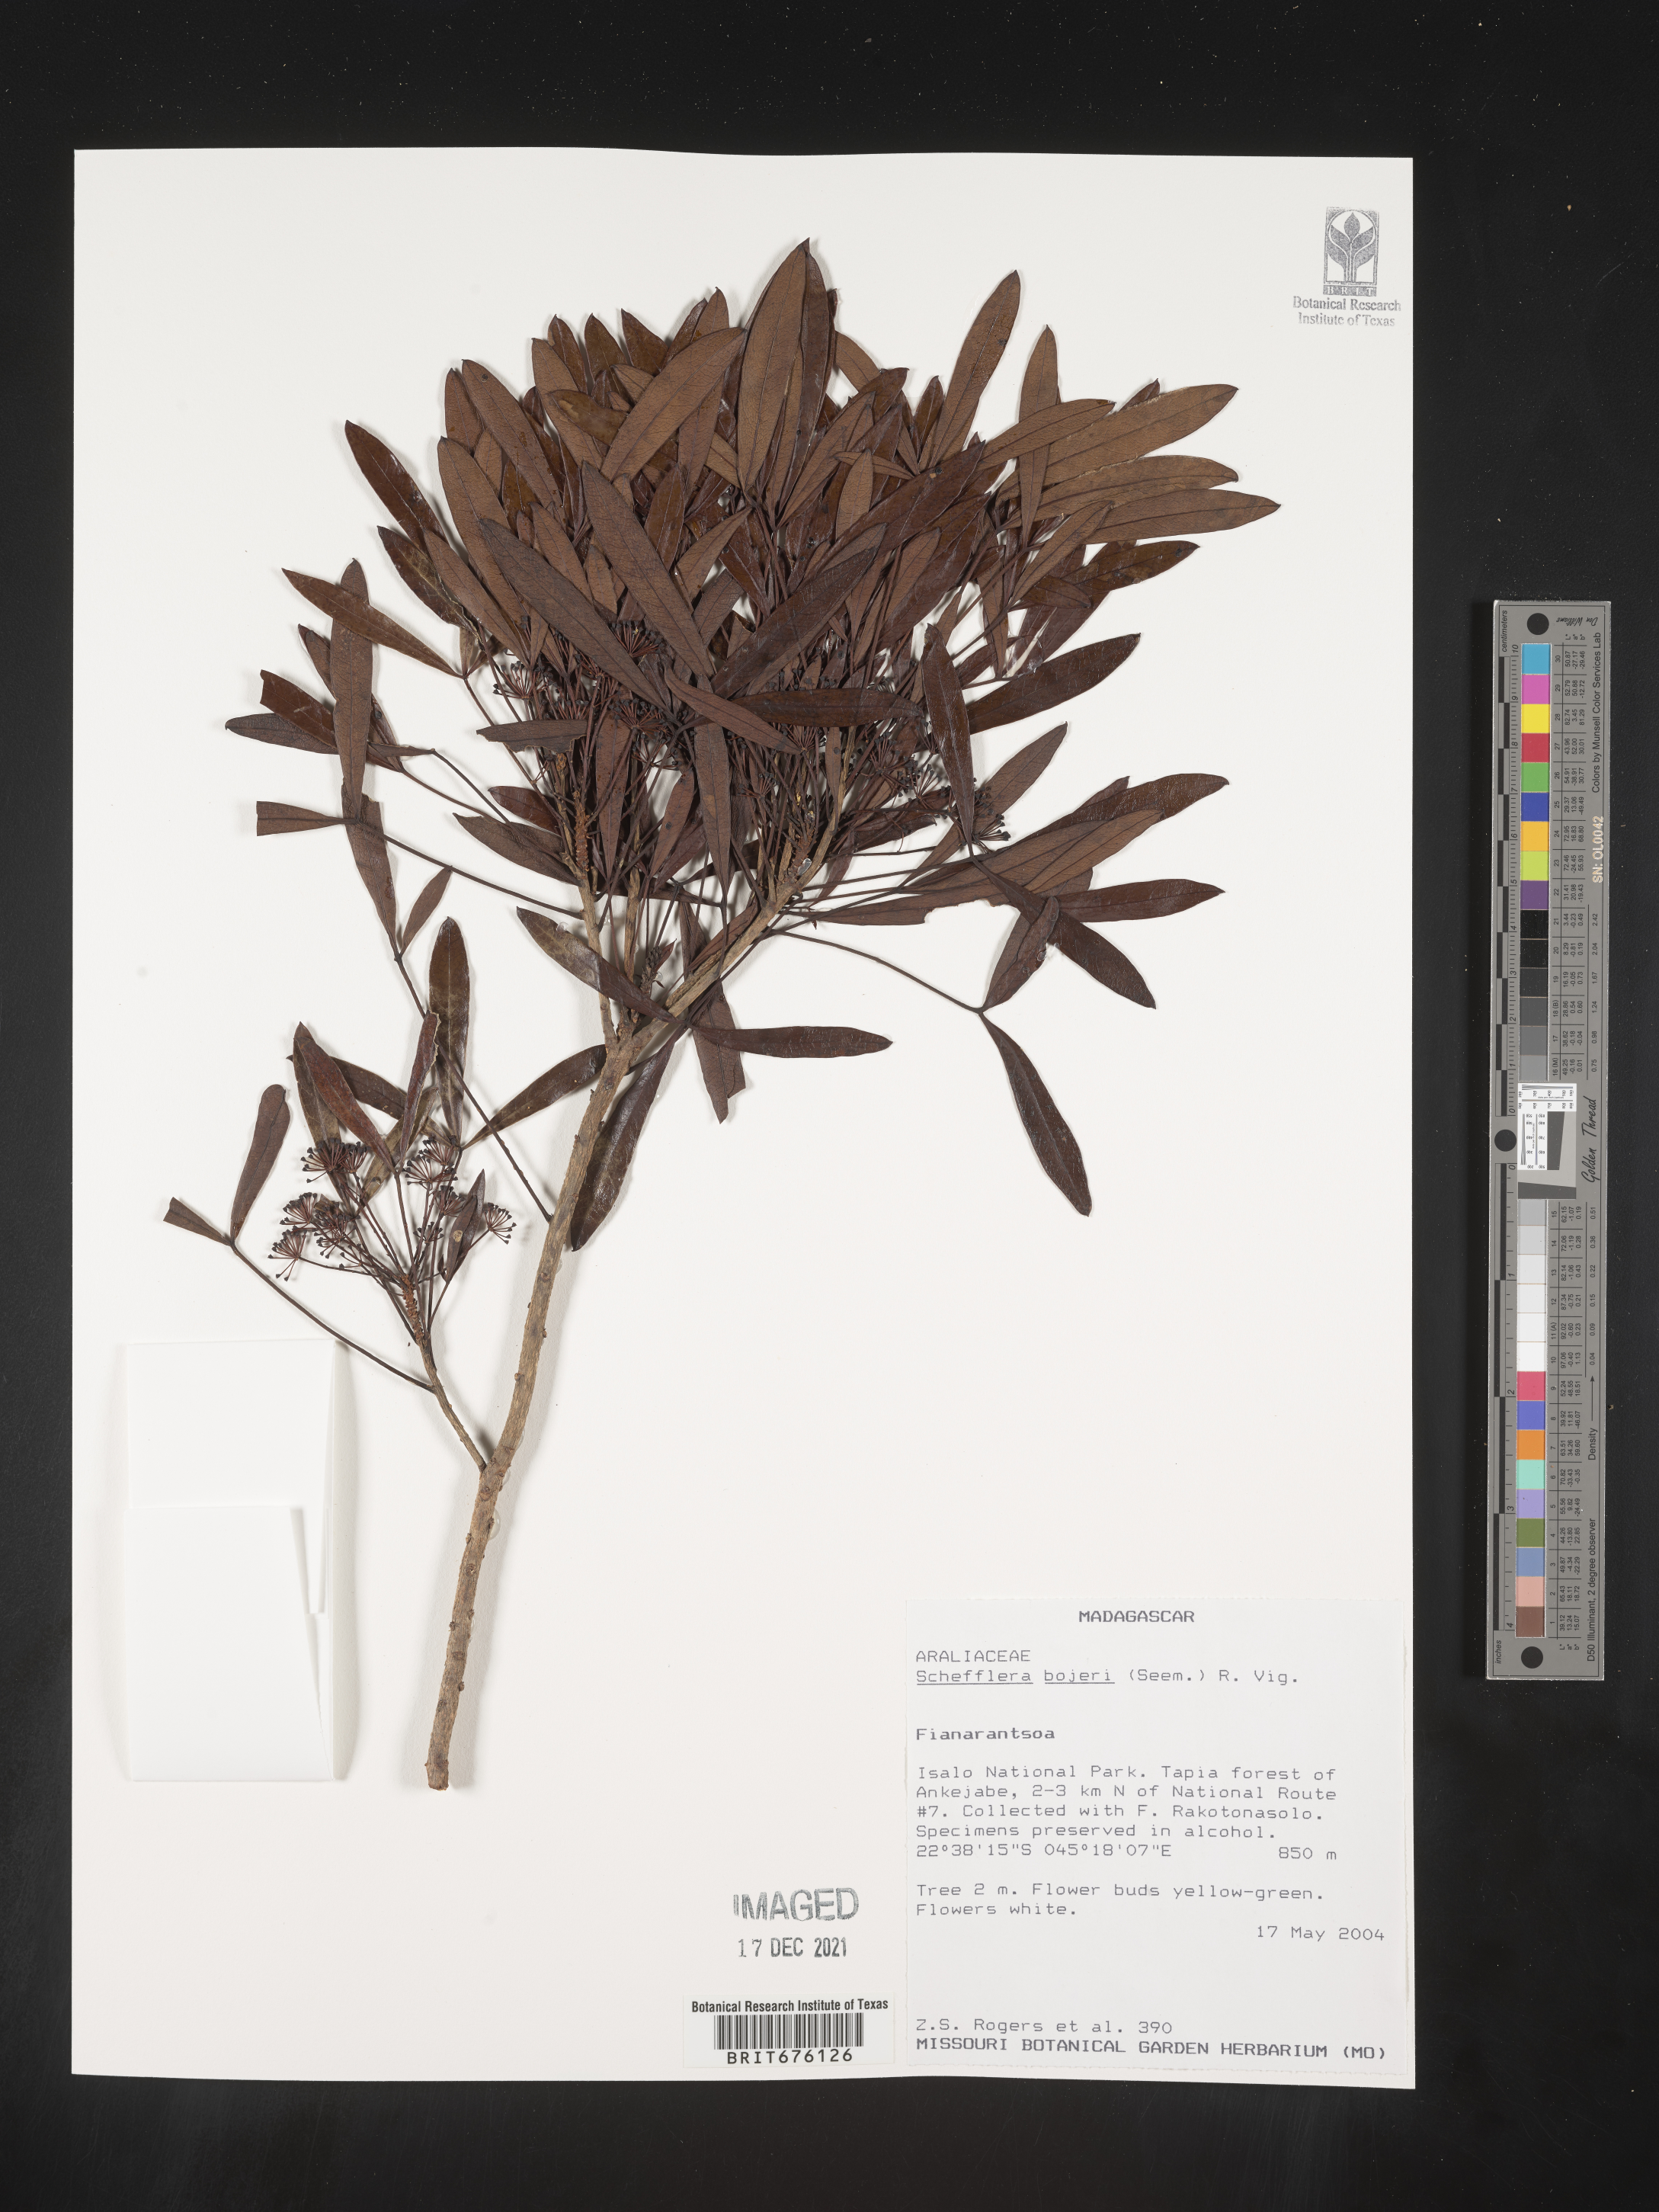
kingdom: Plantae
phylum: Tracheophyta
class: Magnoliopsida
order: Apiales
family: Araliaceae
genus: Schefflera
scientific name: Schefflera
